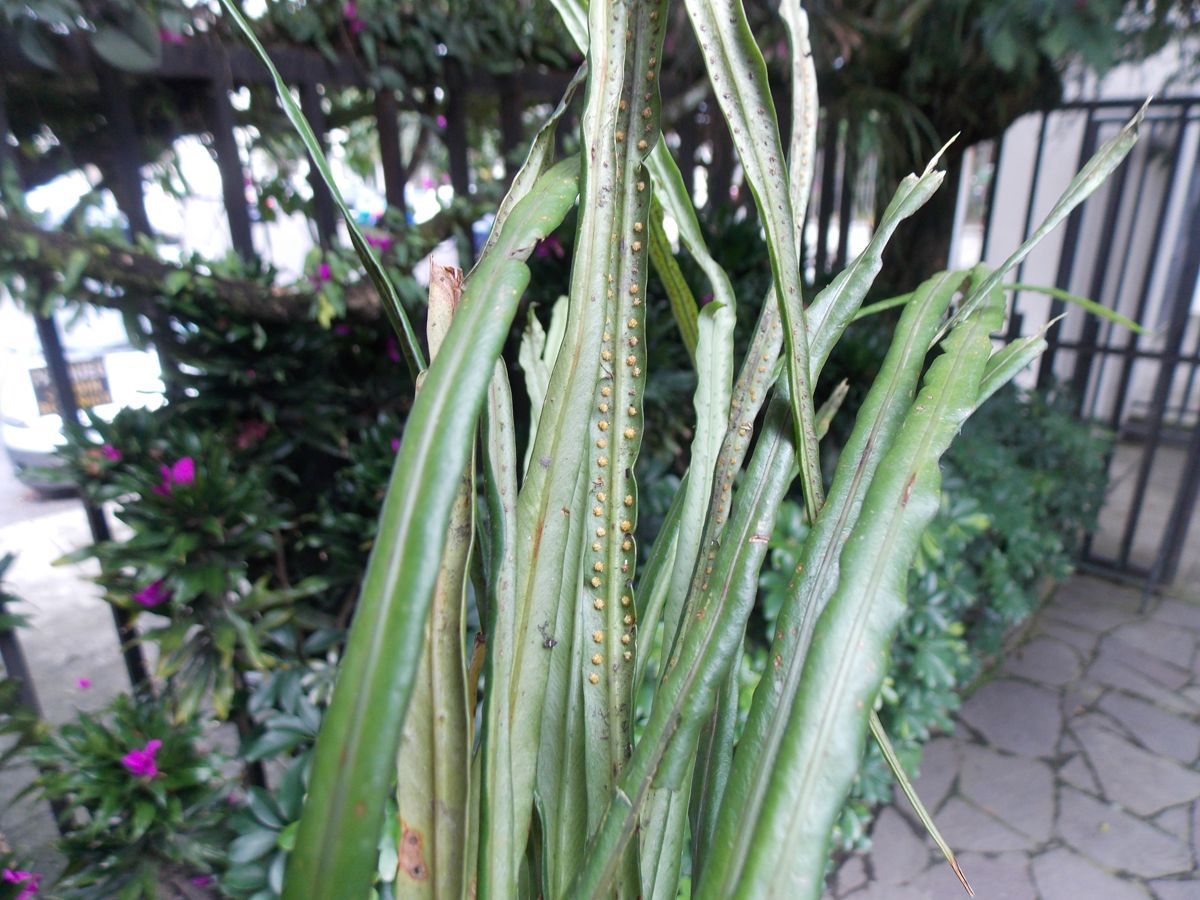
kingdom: Plantae
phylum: Tracheophyta
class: Polypodiopsida
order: Polypodiales
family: Polypodiaceae
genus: Campyloneurum
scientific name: Campyloneurum ensifolium
